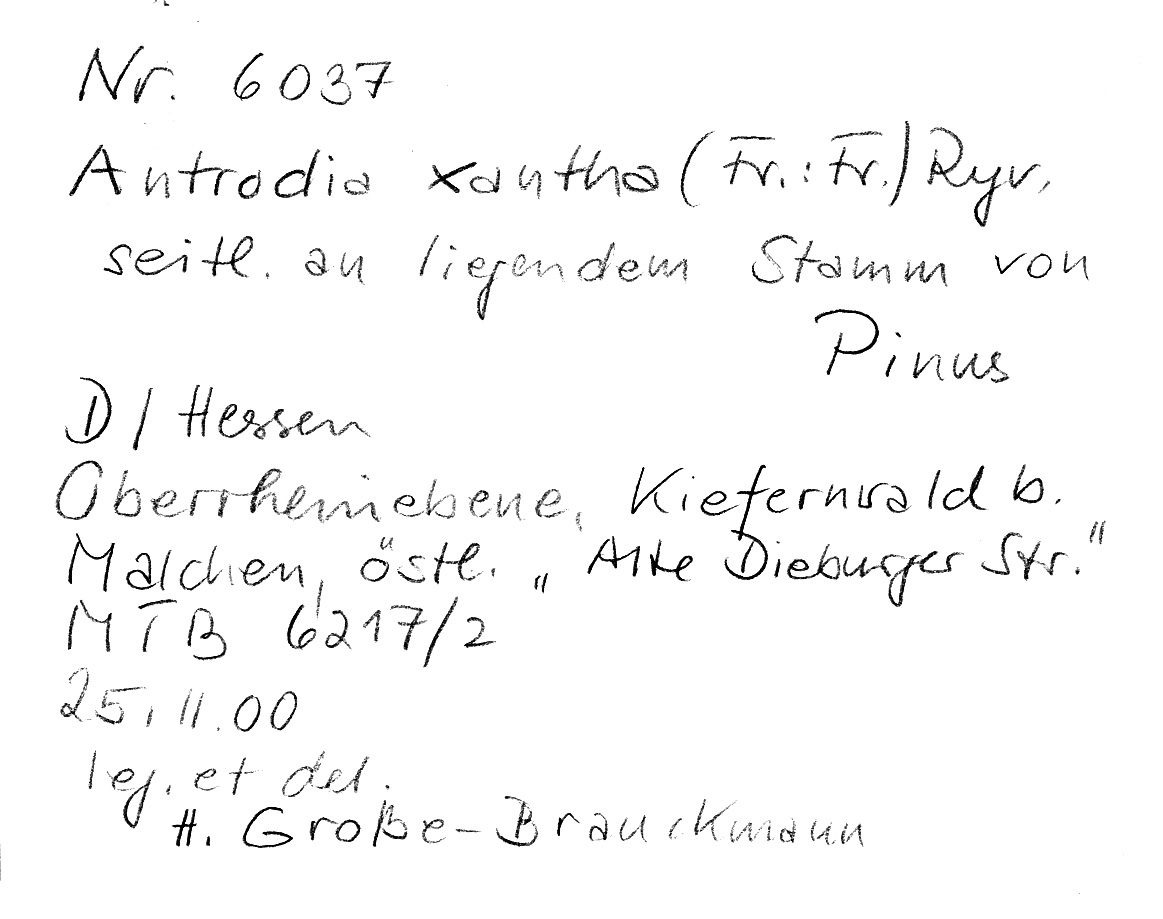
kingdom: Plantae
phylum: Tracheophyta
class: Pinopsida
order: Pinales
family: Pinaceae
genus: Pinus
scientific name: Pinus
